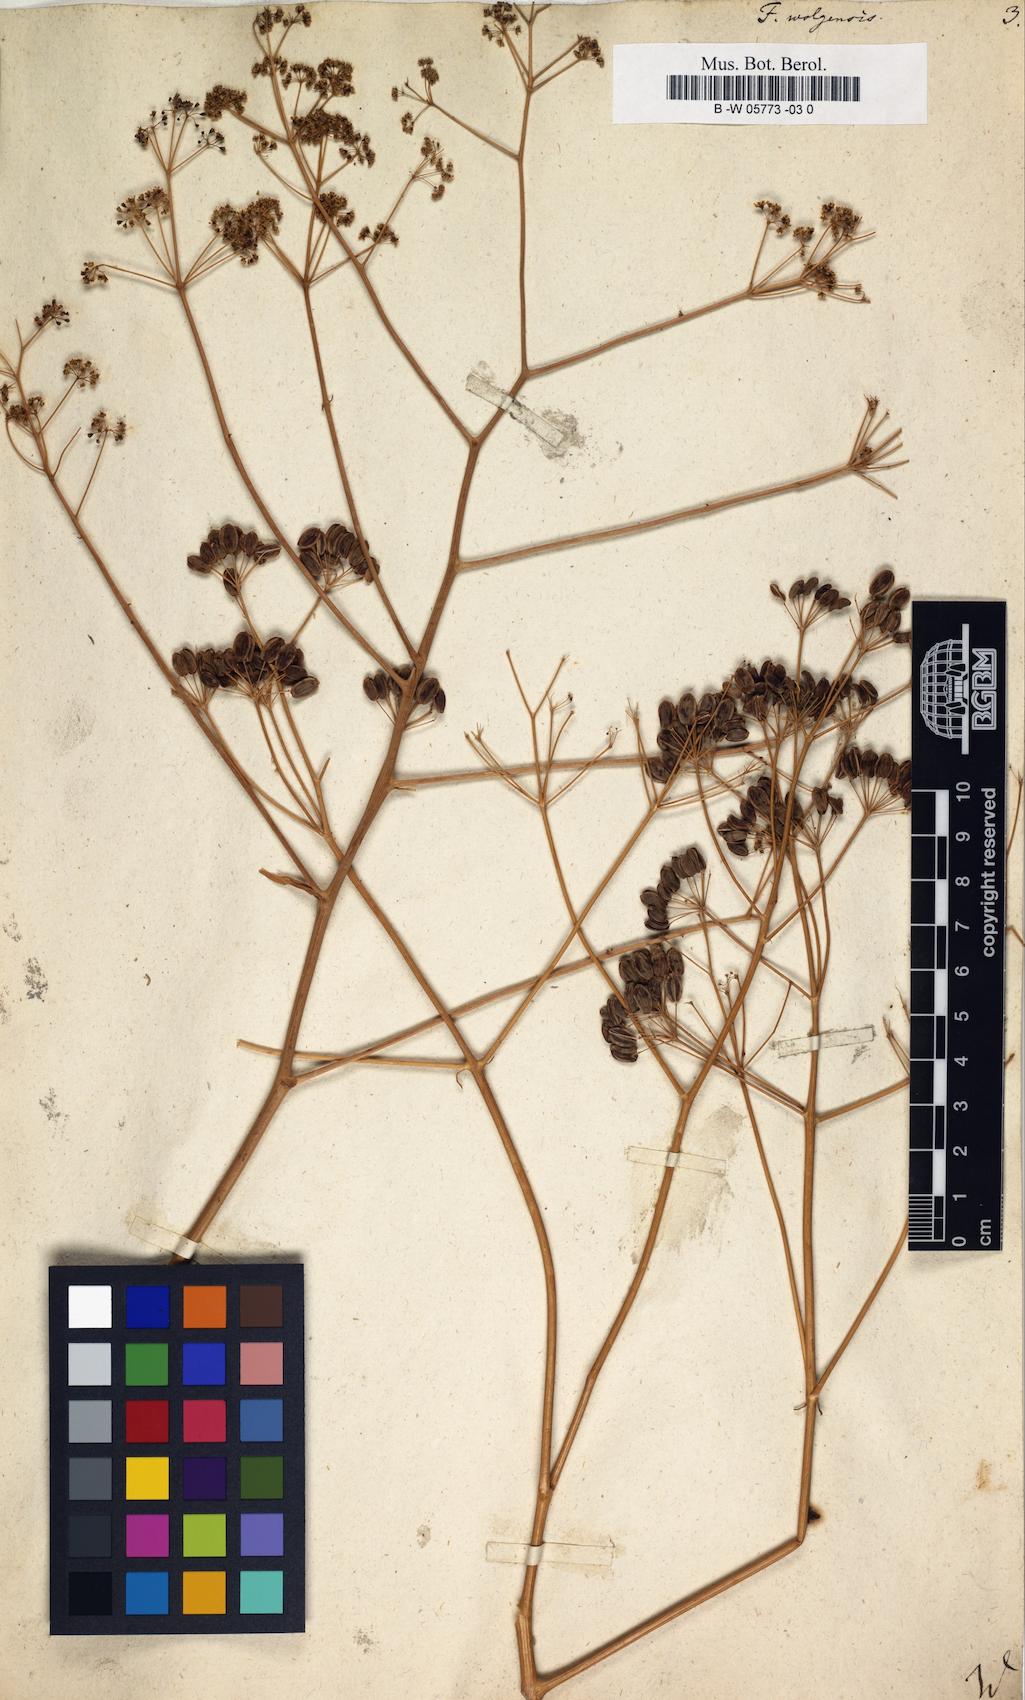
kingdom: Plantae
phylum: Tracheophyta
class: Magnoliopsida
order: Apiales
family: Apiaceae
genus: Ferula
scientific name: Ferula nuda
